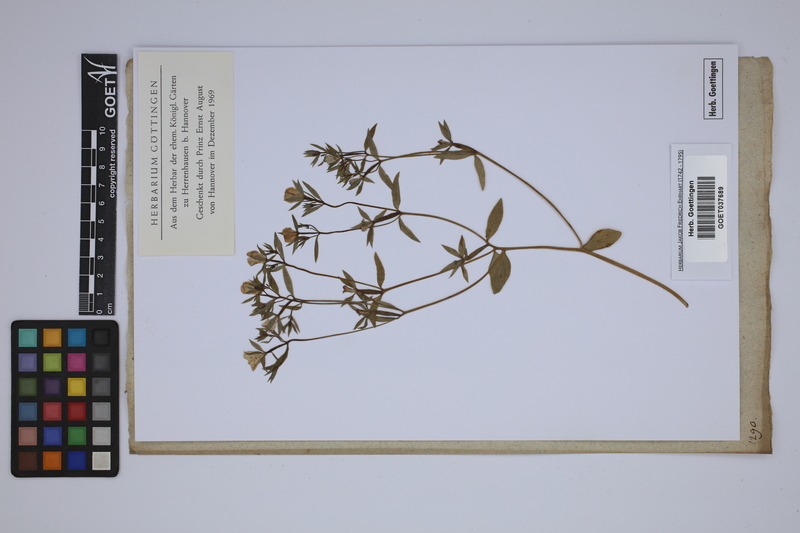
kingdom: Plantae
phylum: Tracheophyta
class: Magnoliopsida
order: Asterales
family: Campanulaceae
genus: Legousia
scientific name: Legousia speculum-veneris
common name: Large venus's-looking-glass
